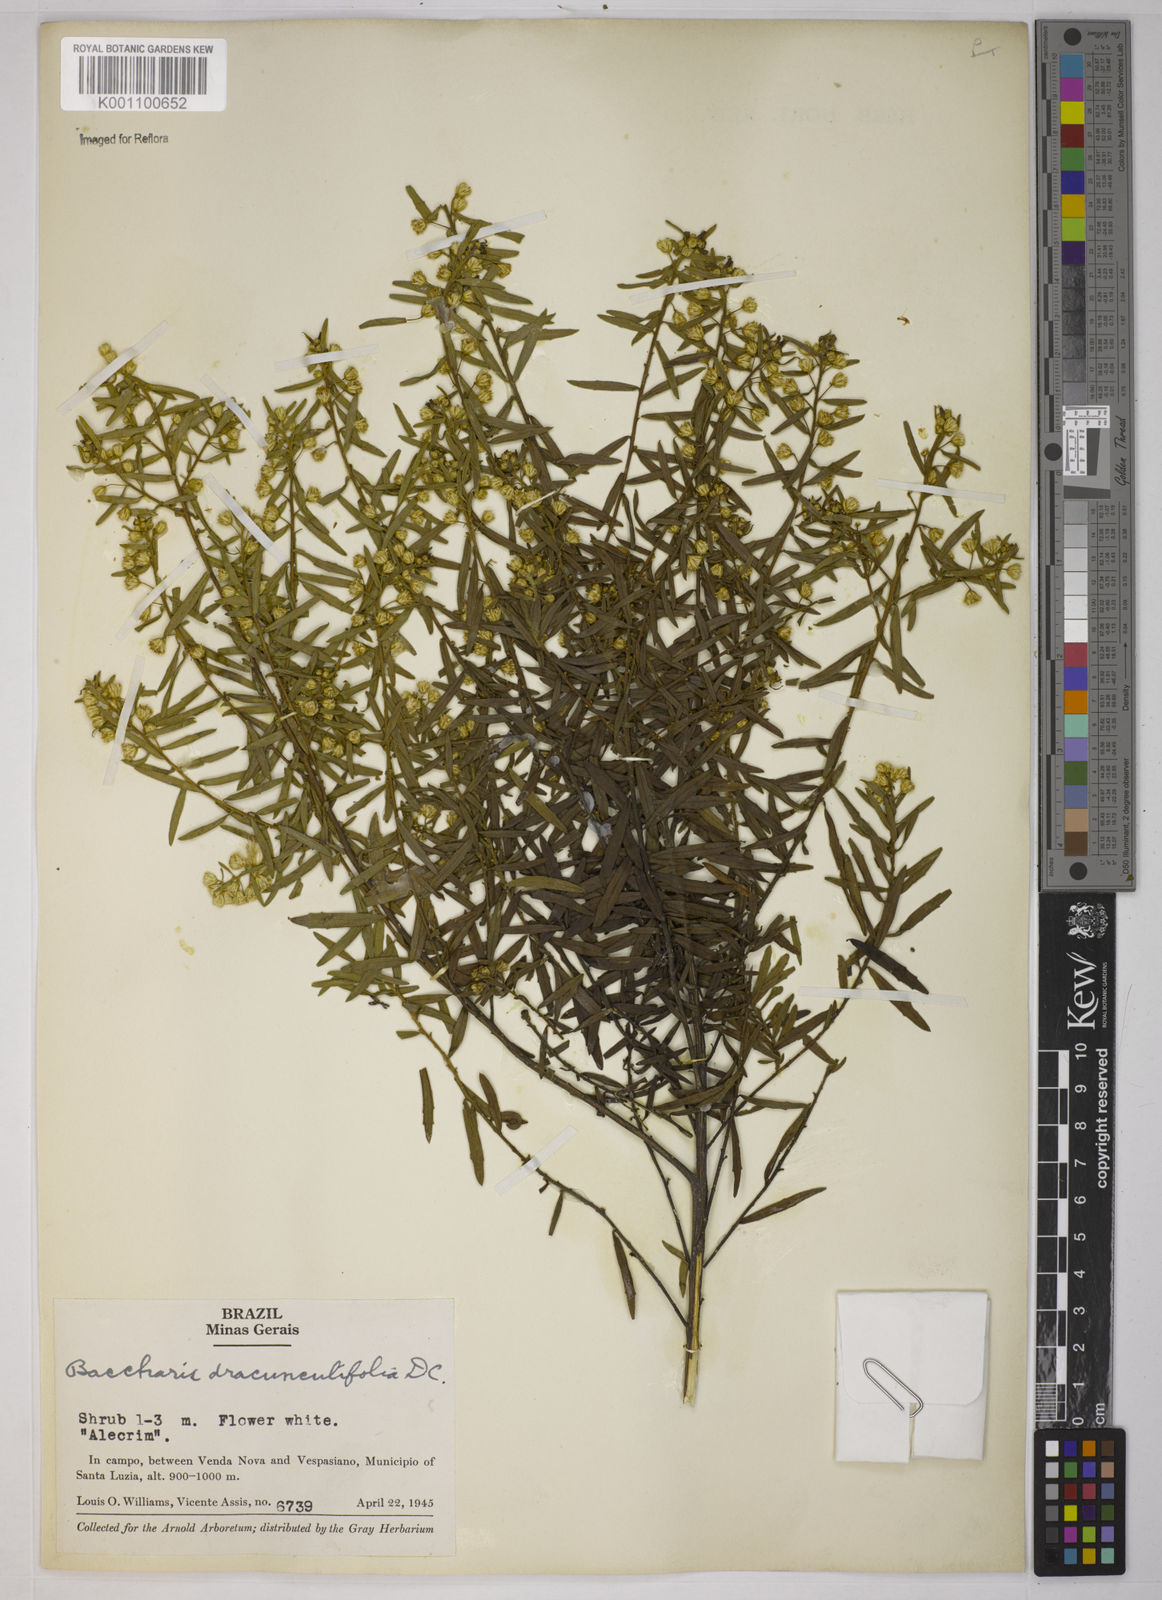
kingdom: Plantae
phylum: Tracheophyta
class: Magnoliopsida
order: Asterales
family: Asteraceae
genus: Baccharis
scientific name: Baccharis dracunculifolia
